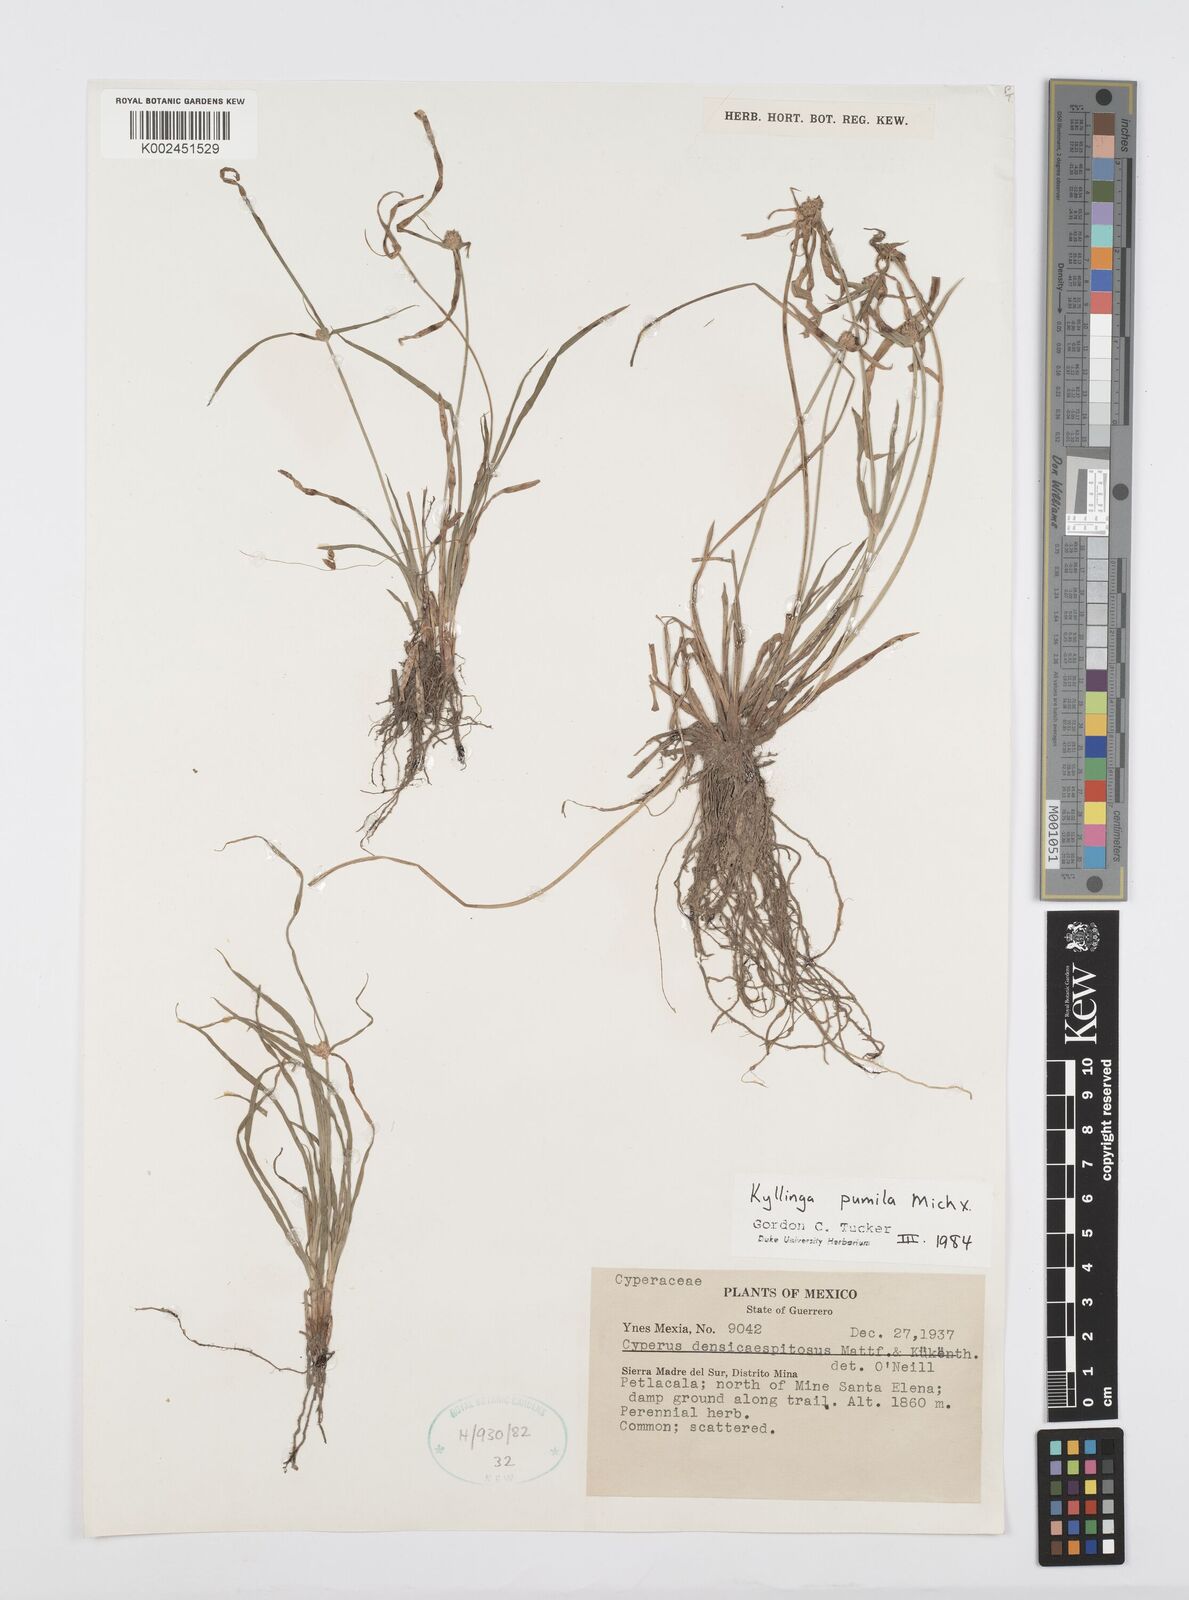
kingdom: Plantae
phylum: Tracheophyta
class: Liliopsida
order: Poales
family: Cyperaceae
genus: Cyperus
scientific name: Cyperus hortensis
